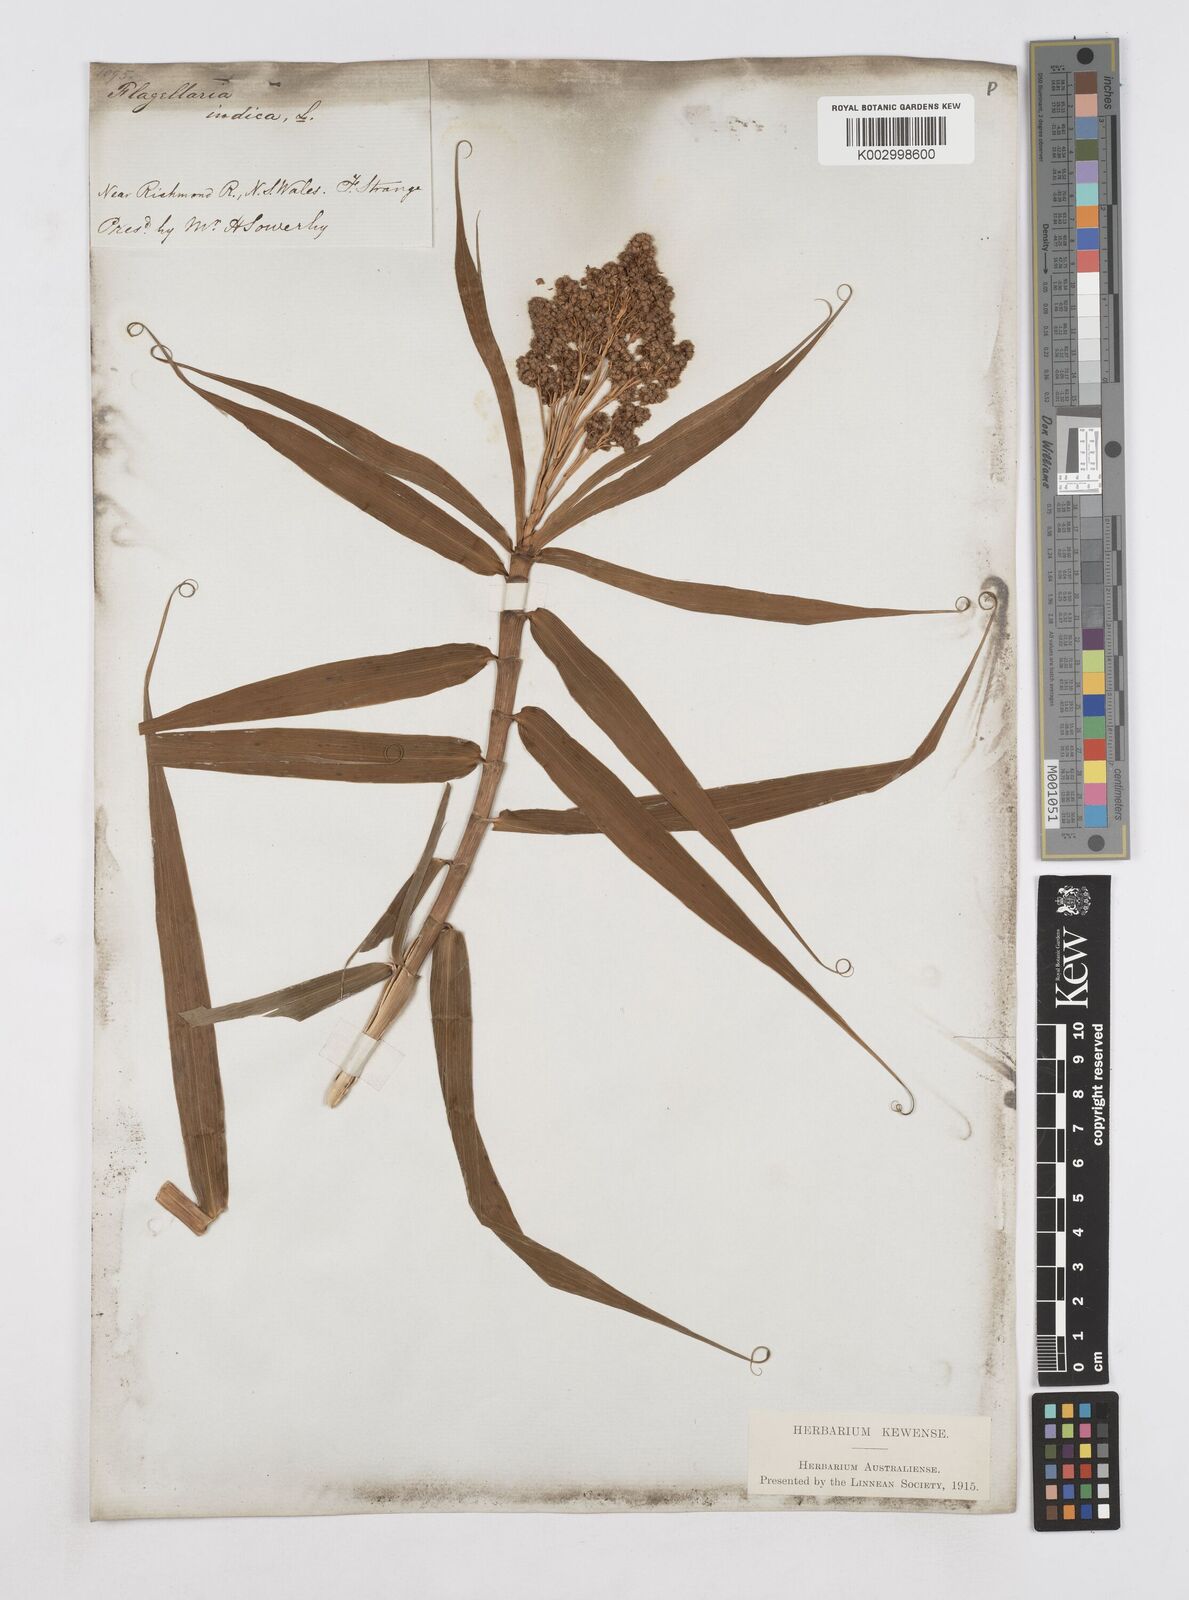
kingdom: Plantae
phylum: Tracheophyta
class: Liliopsida
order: Poales
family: Flagellariaceae
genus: Flagellaria
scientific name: Flagellaria indica
